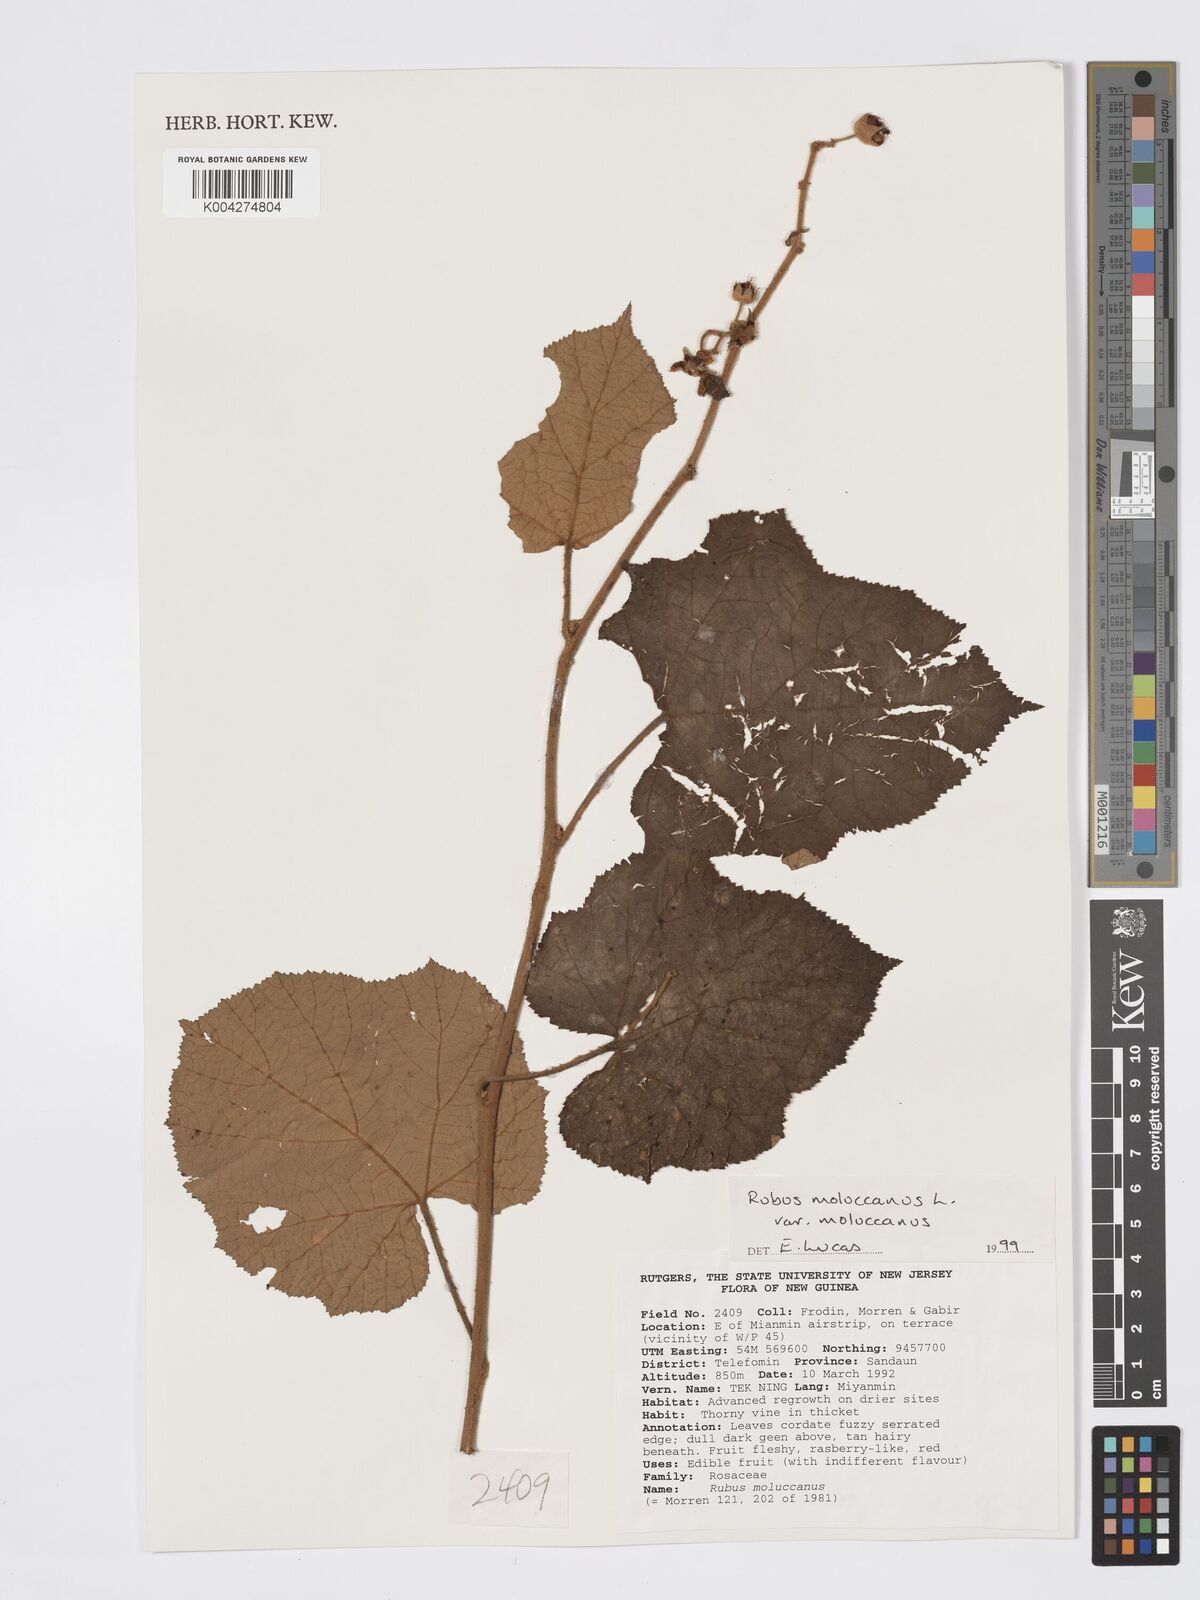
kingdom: Plantae
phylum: Tracheophyta
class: Magnoliopsida
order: Rosales
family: Rosaceae
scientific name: Rosaceae
